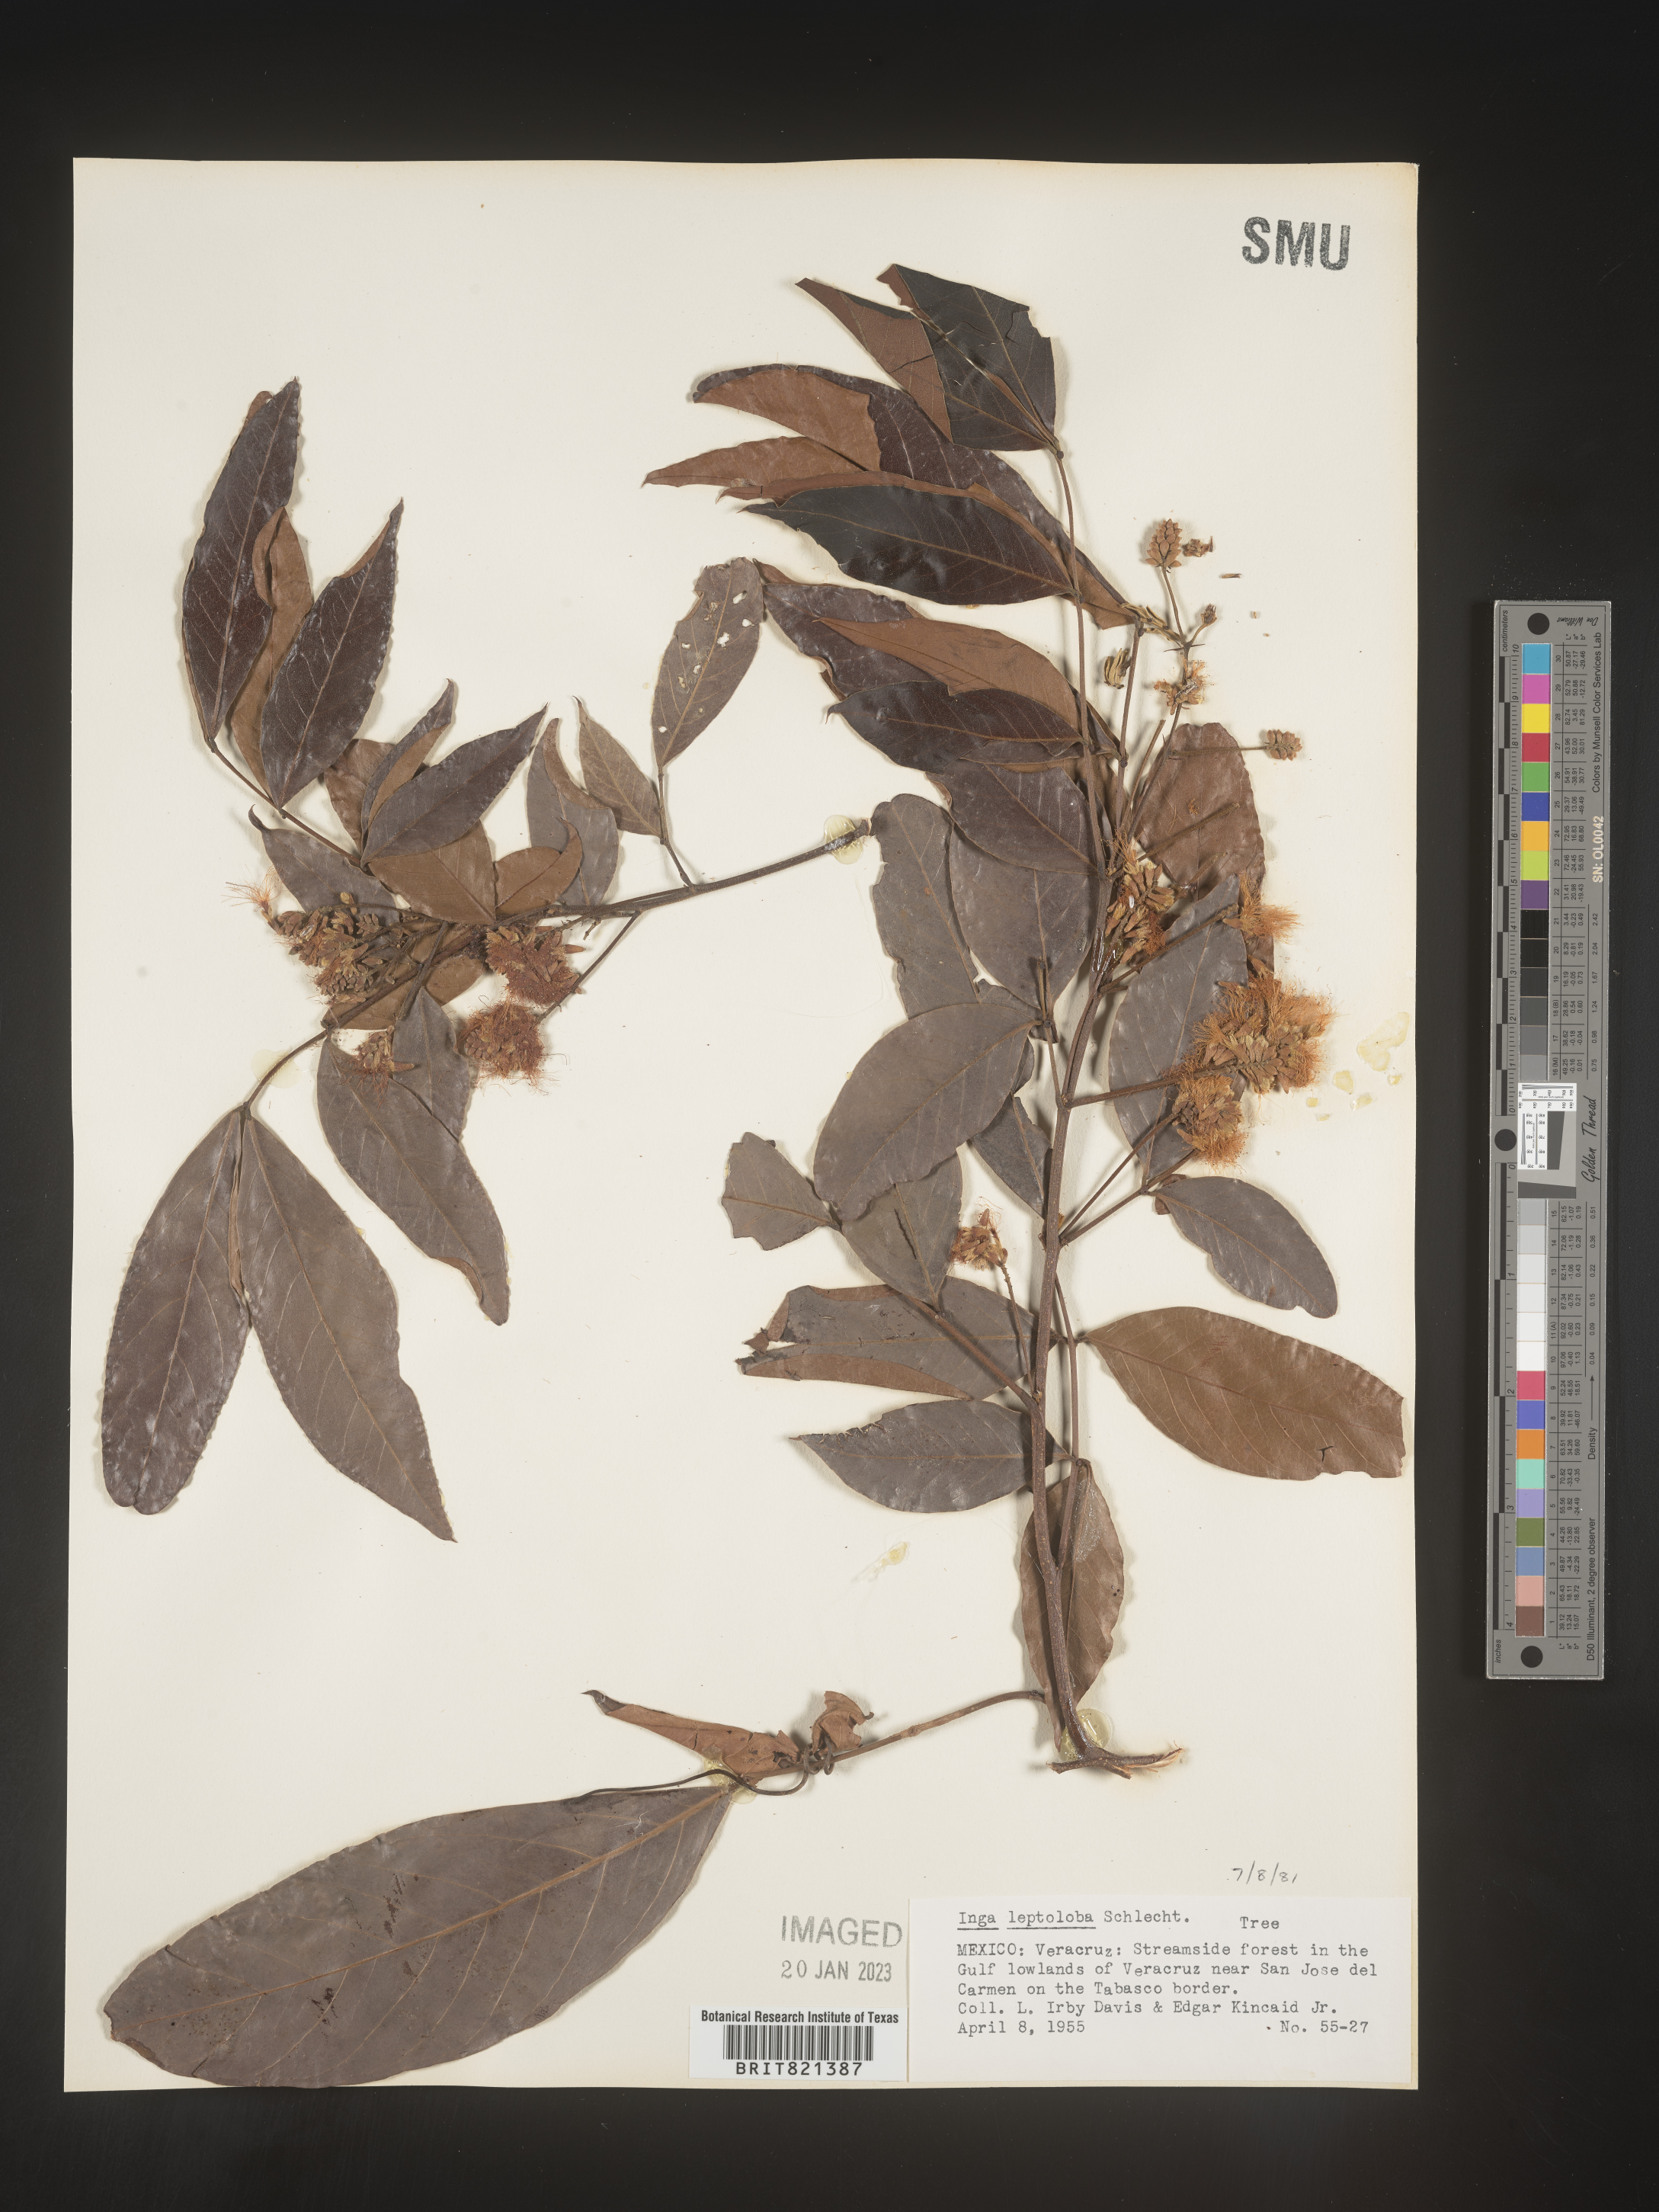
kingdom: Plantae
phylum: Tracheophyta
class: Magnoliopsida
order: Fabales
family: Fabaceae
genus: Inga
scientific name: Inga
